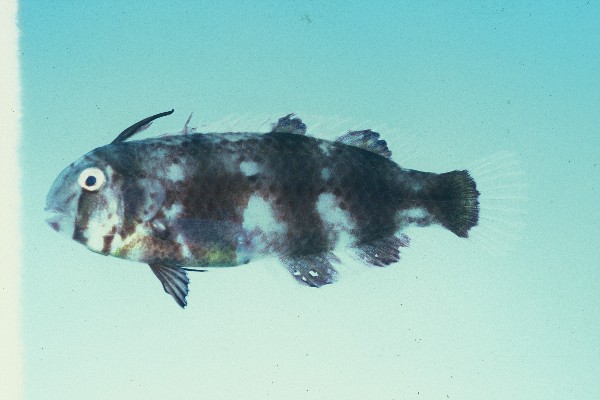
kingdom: Animalia
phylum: Chordata
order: Perciformes
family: Labridae
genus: Iniistius
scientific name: Iniistius pavo
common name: Peacock wrasse
